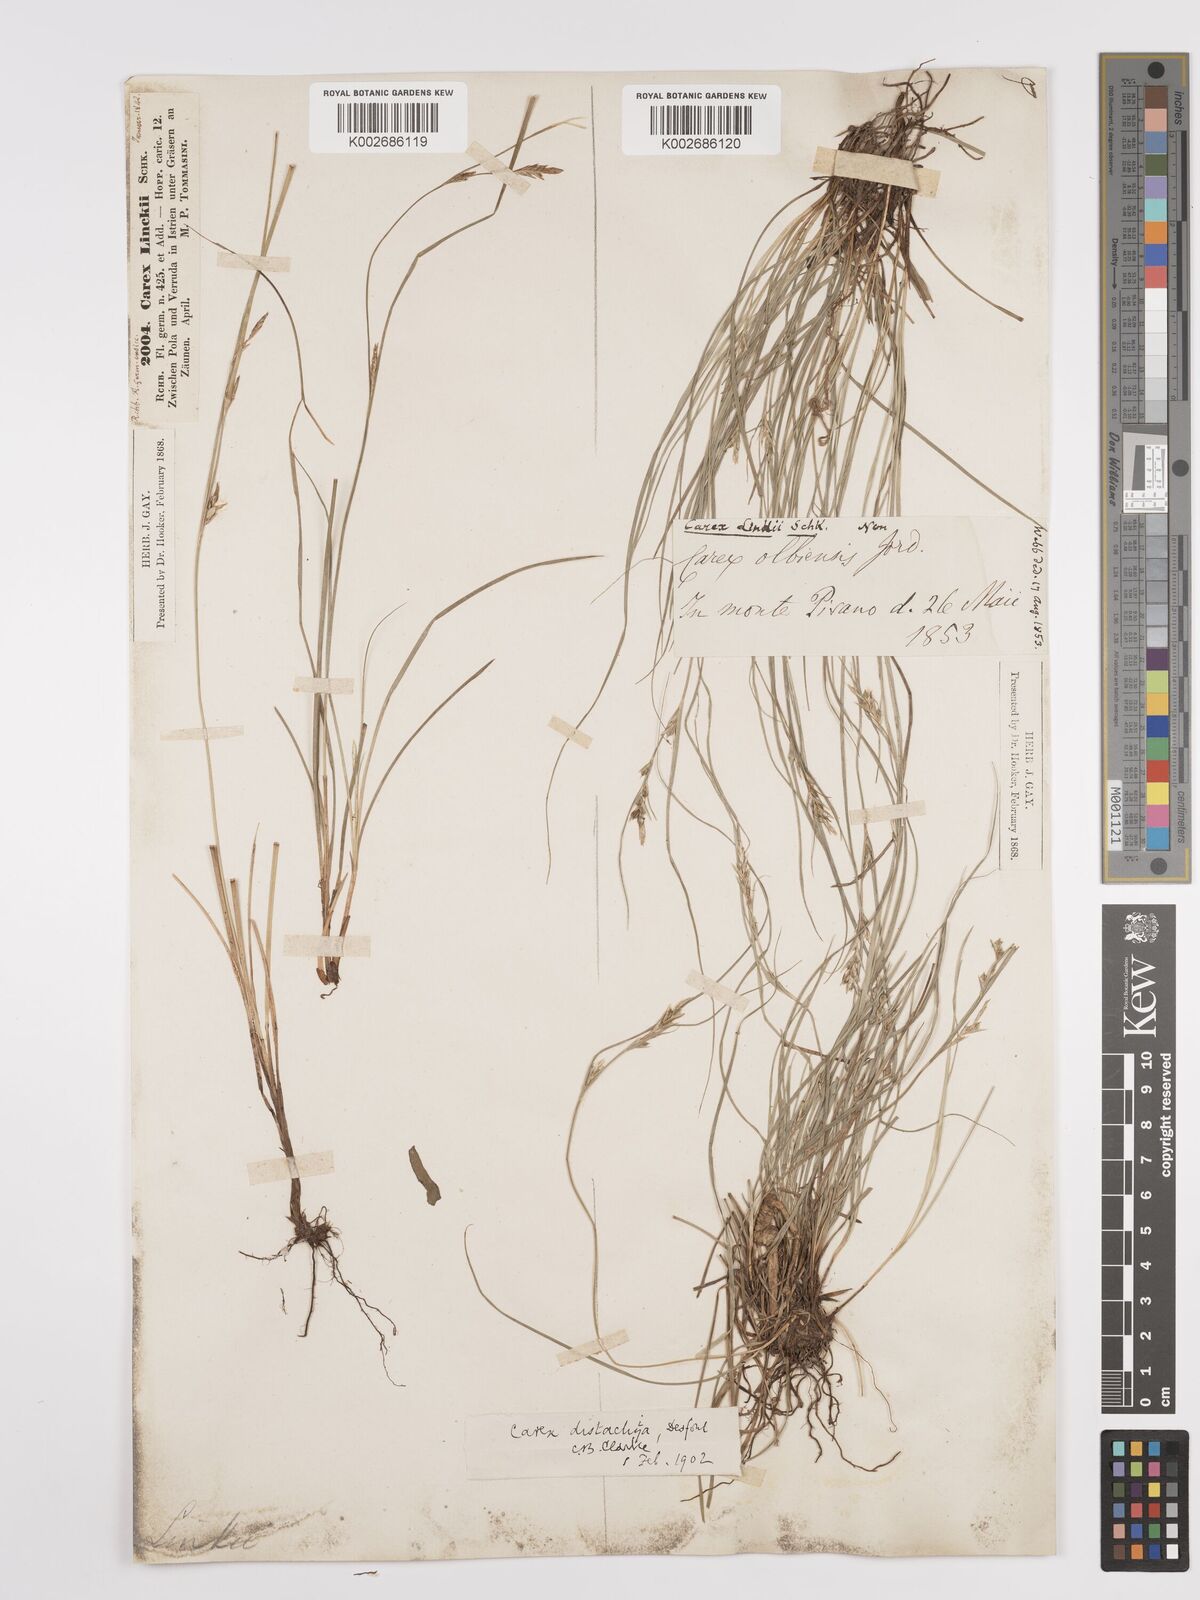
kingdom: Plantae
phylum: Tracheophyta
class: Liliopsida
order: Poales
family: Cyperaceae
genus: Carex
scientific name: Carex distachya
